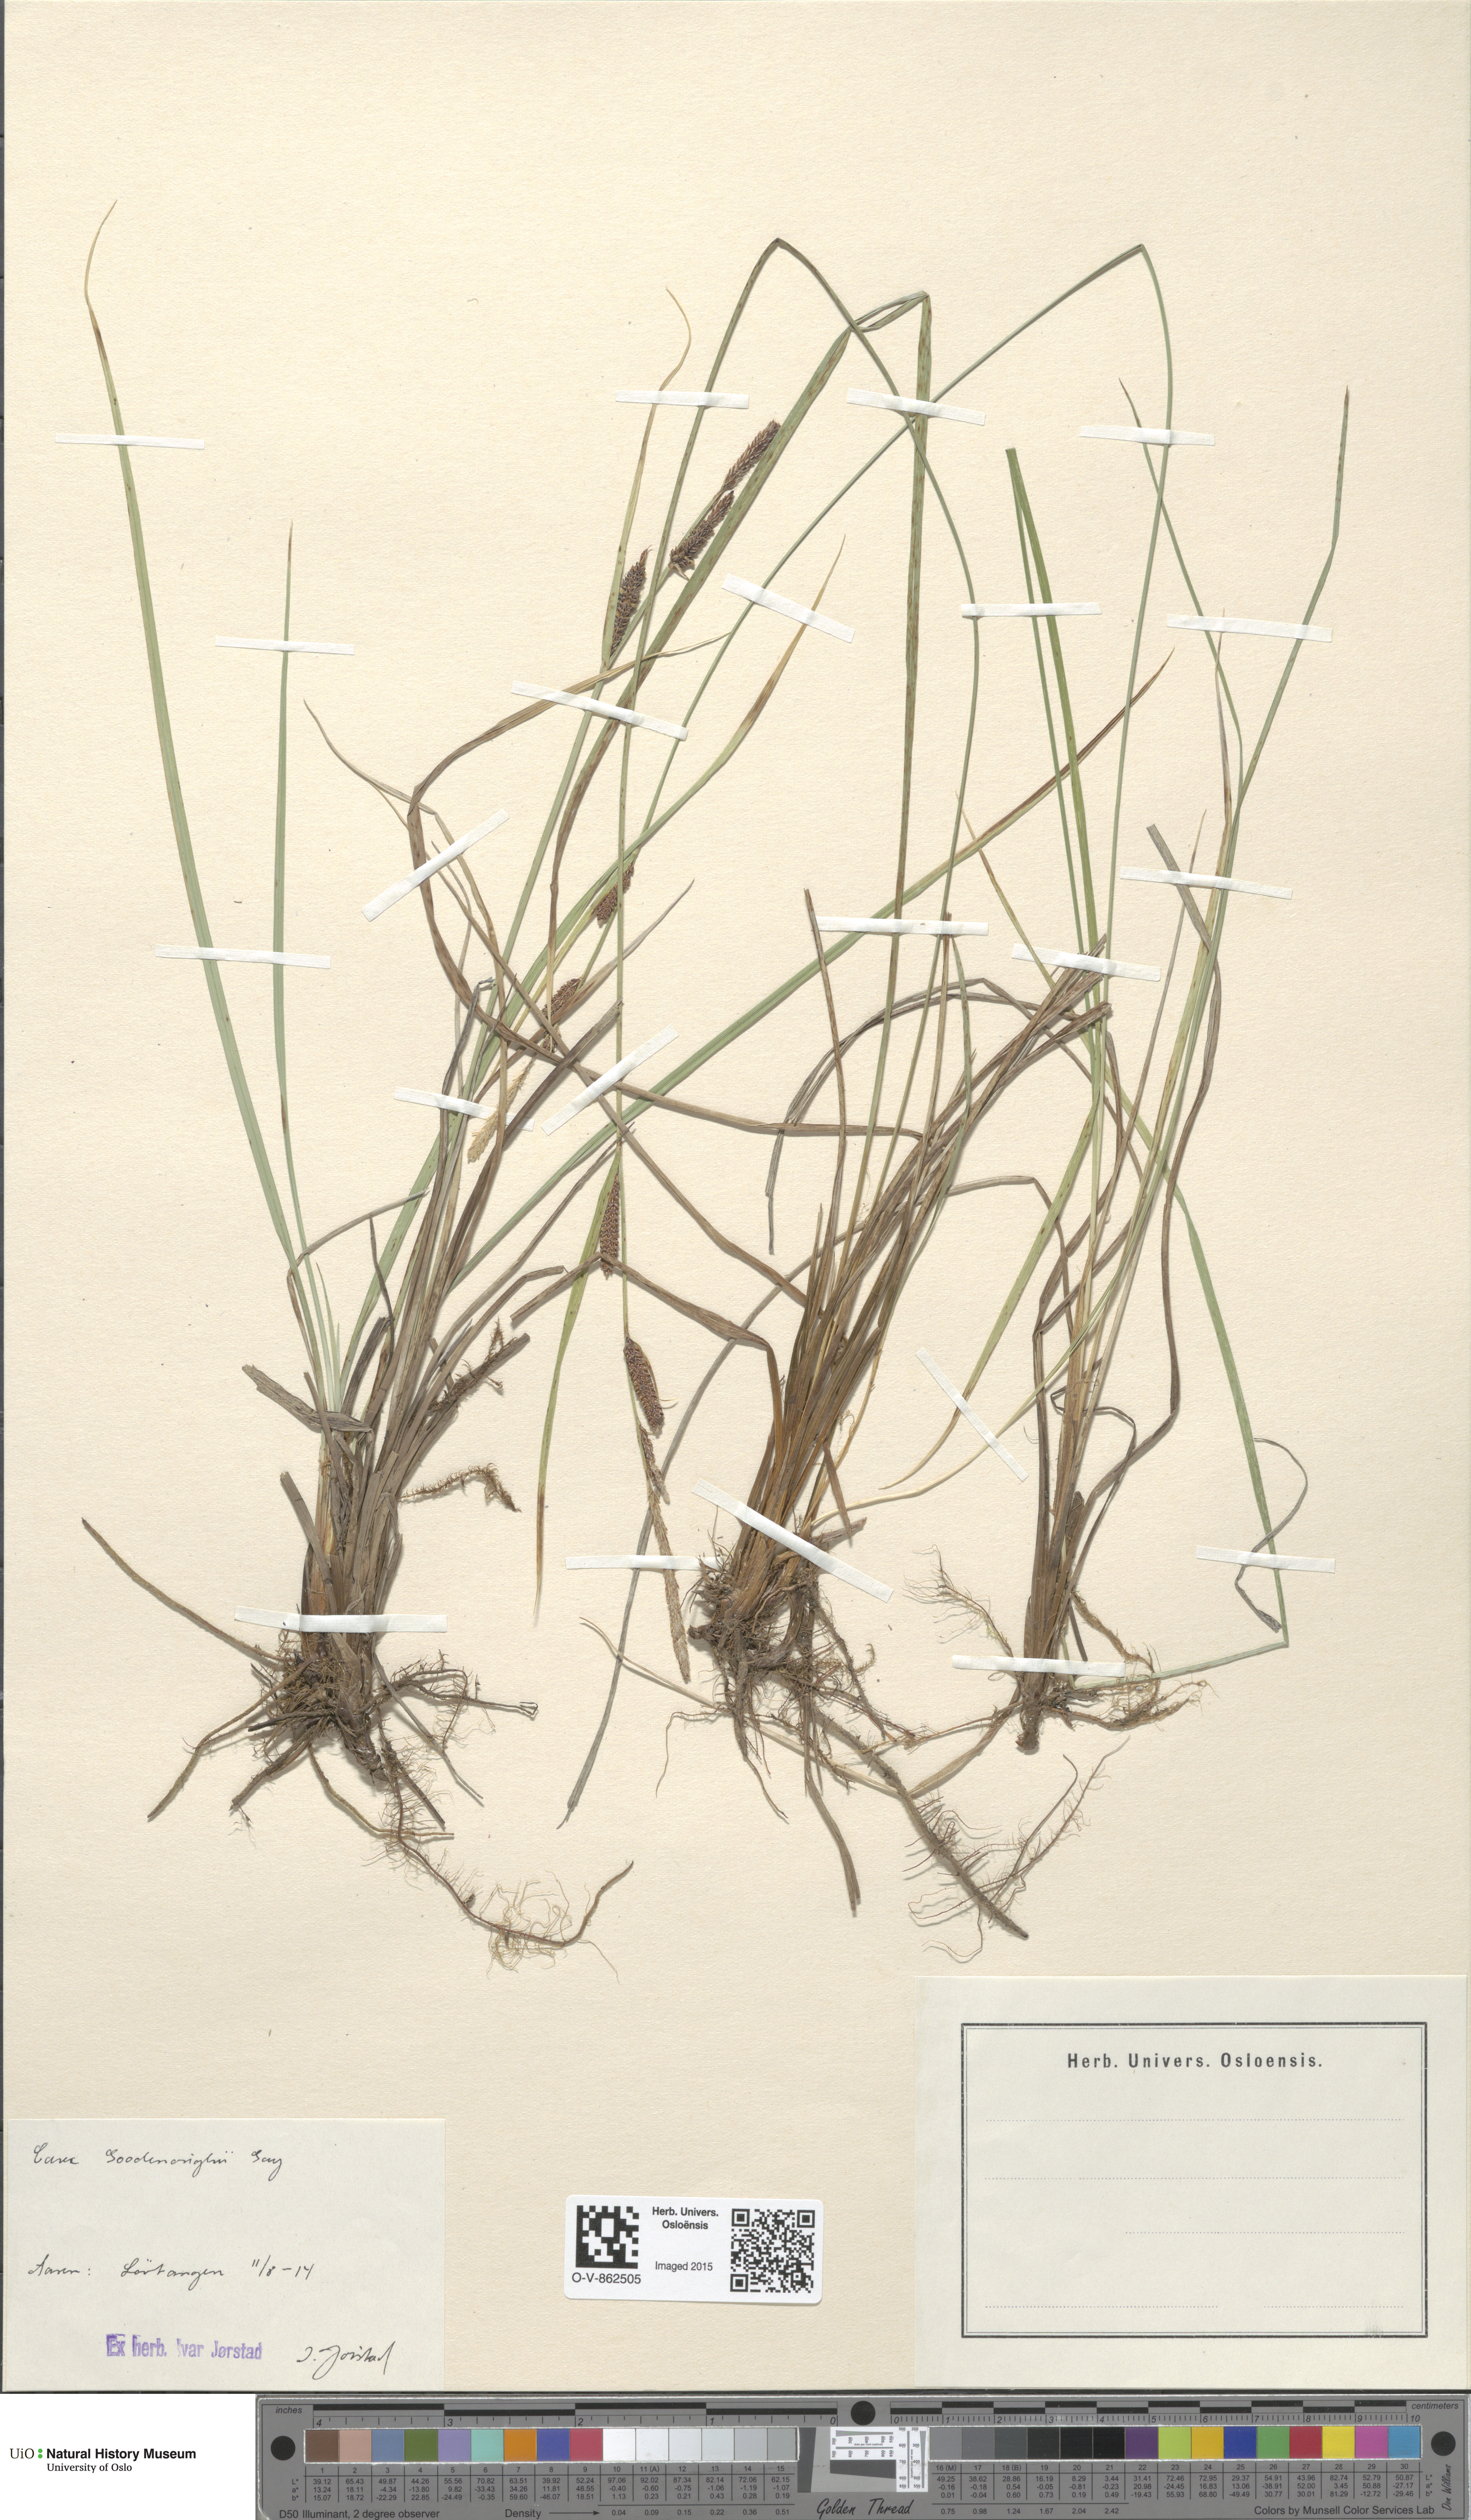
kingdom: Plantae
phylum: Tracheophyta
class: Liliopsida
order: Poales
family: Cyperaceae
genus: Carex
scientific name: Carex nigra
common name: Common sedge
